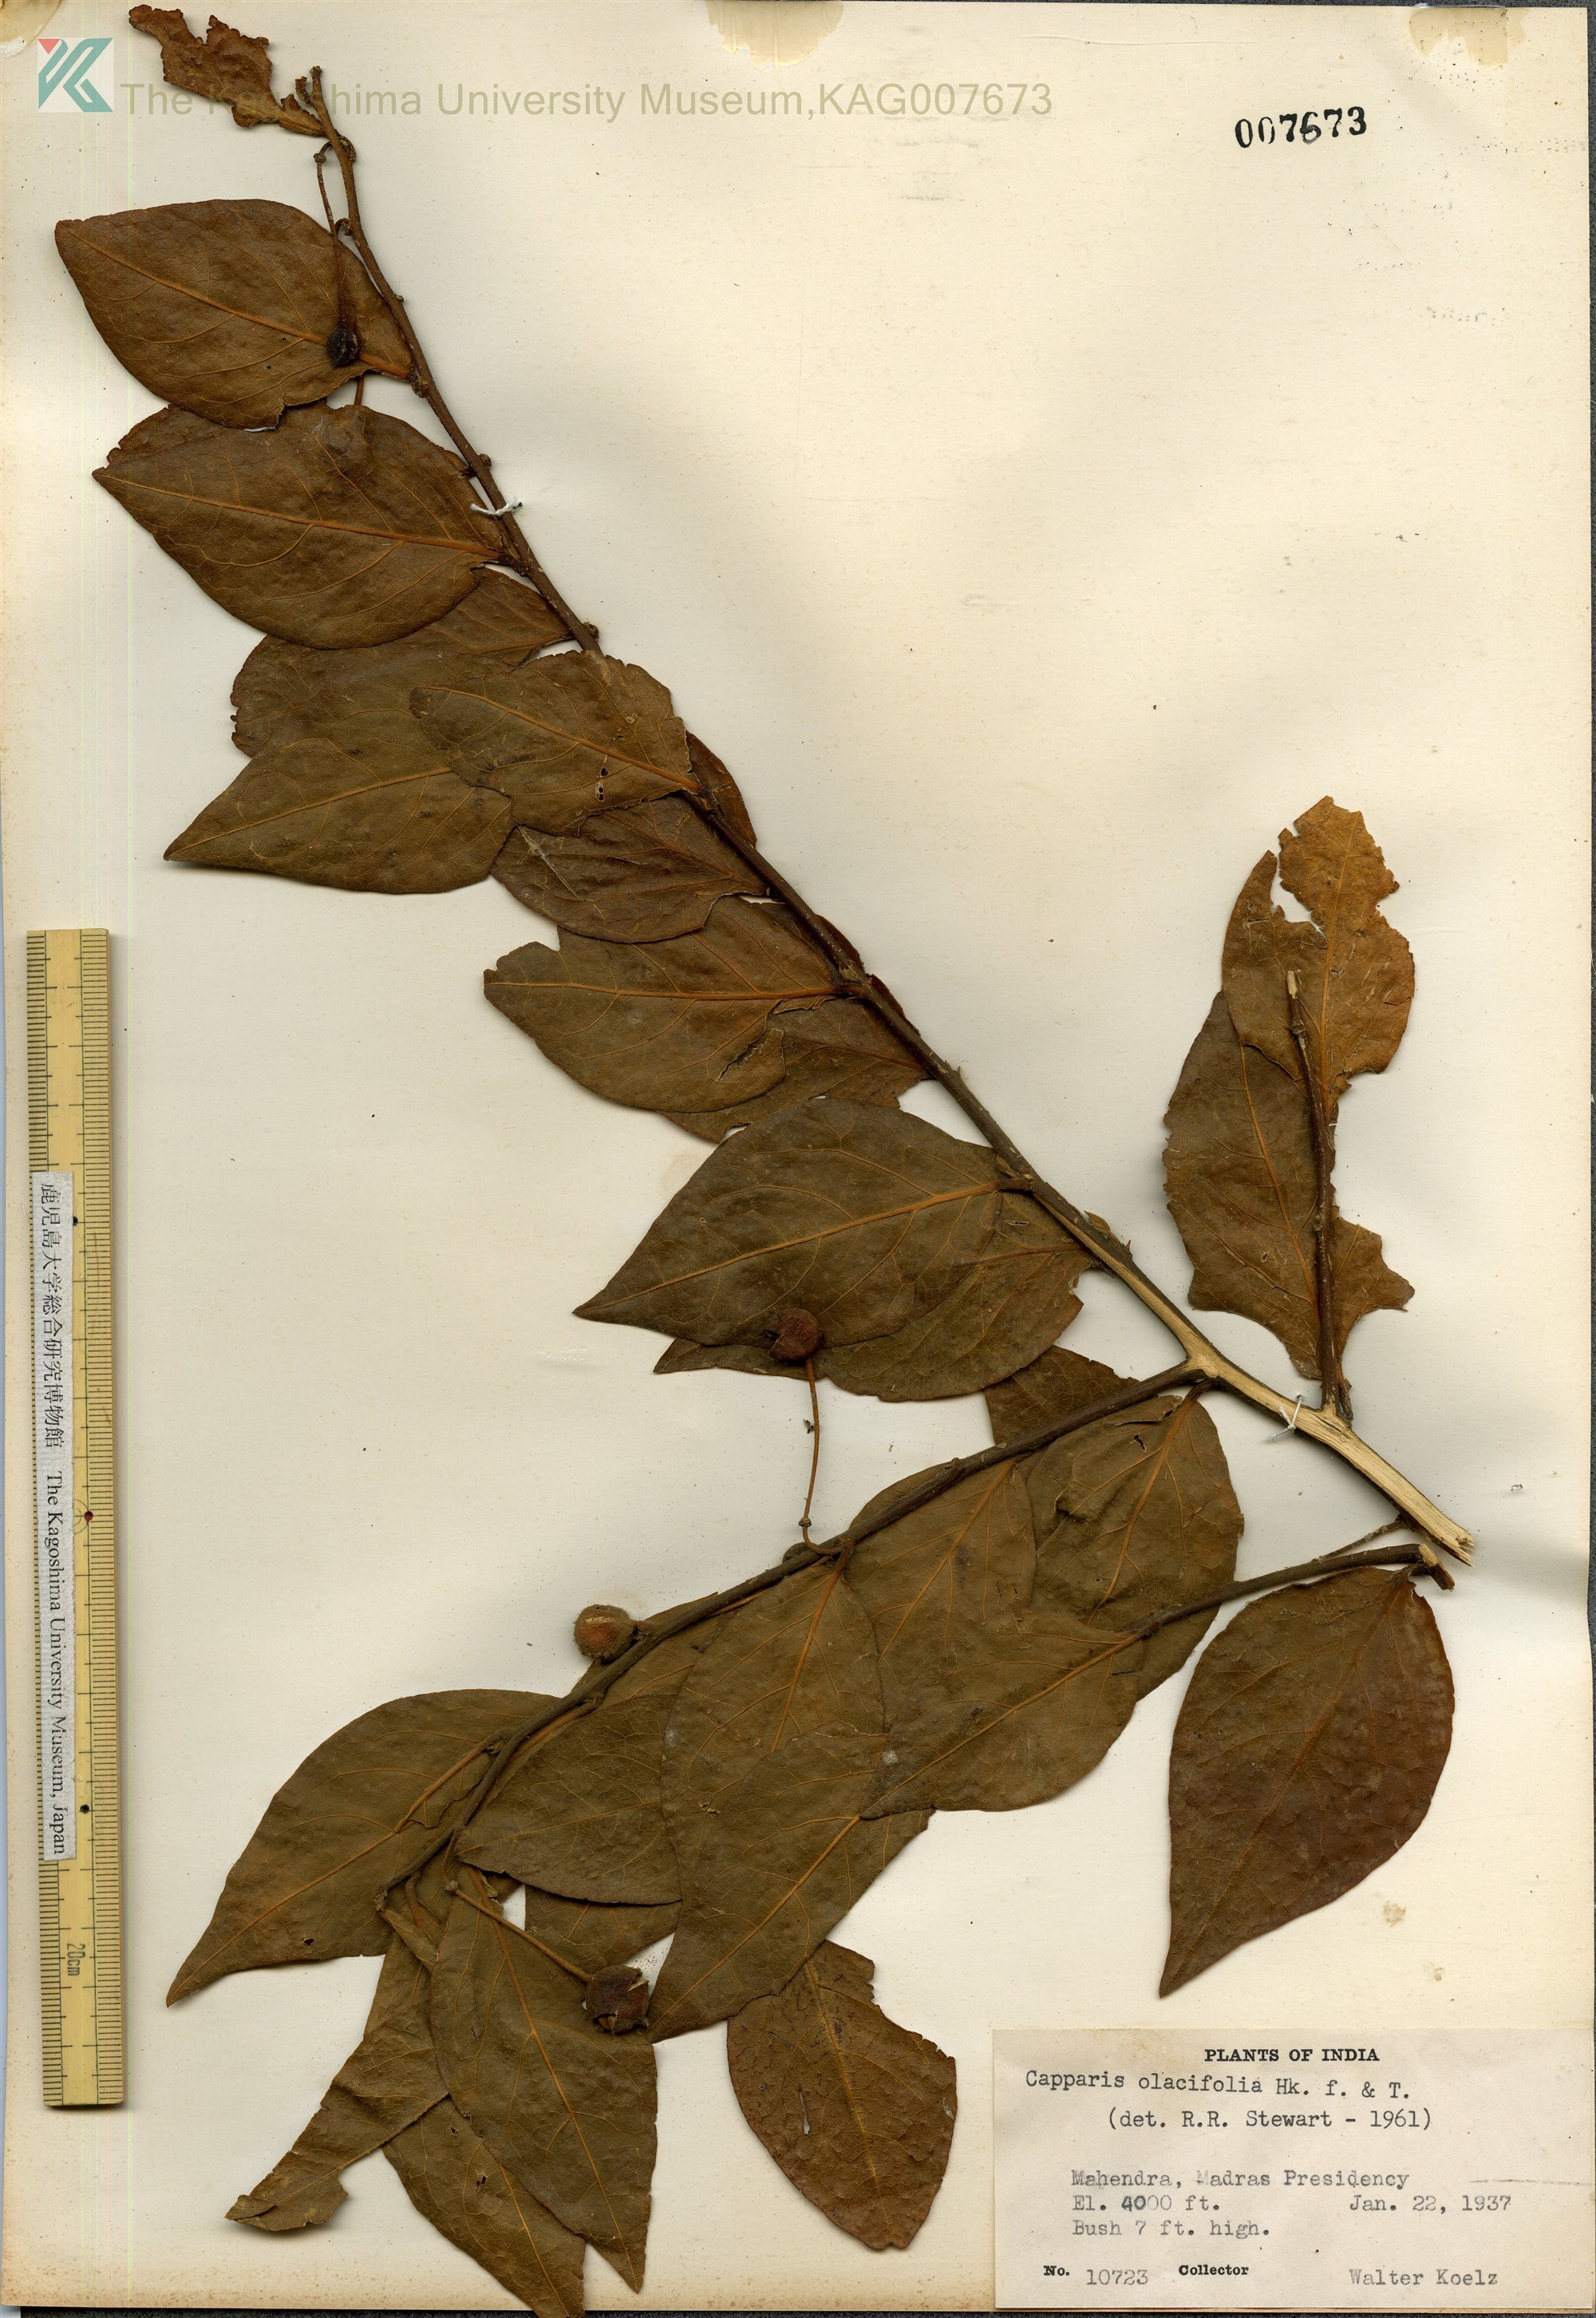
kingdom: Plantae
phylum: Tracheophyta
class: Magnoliopsida
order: Brassicales
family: Capparaceae
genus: Capparis
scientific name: Capparis olacifolia
